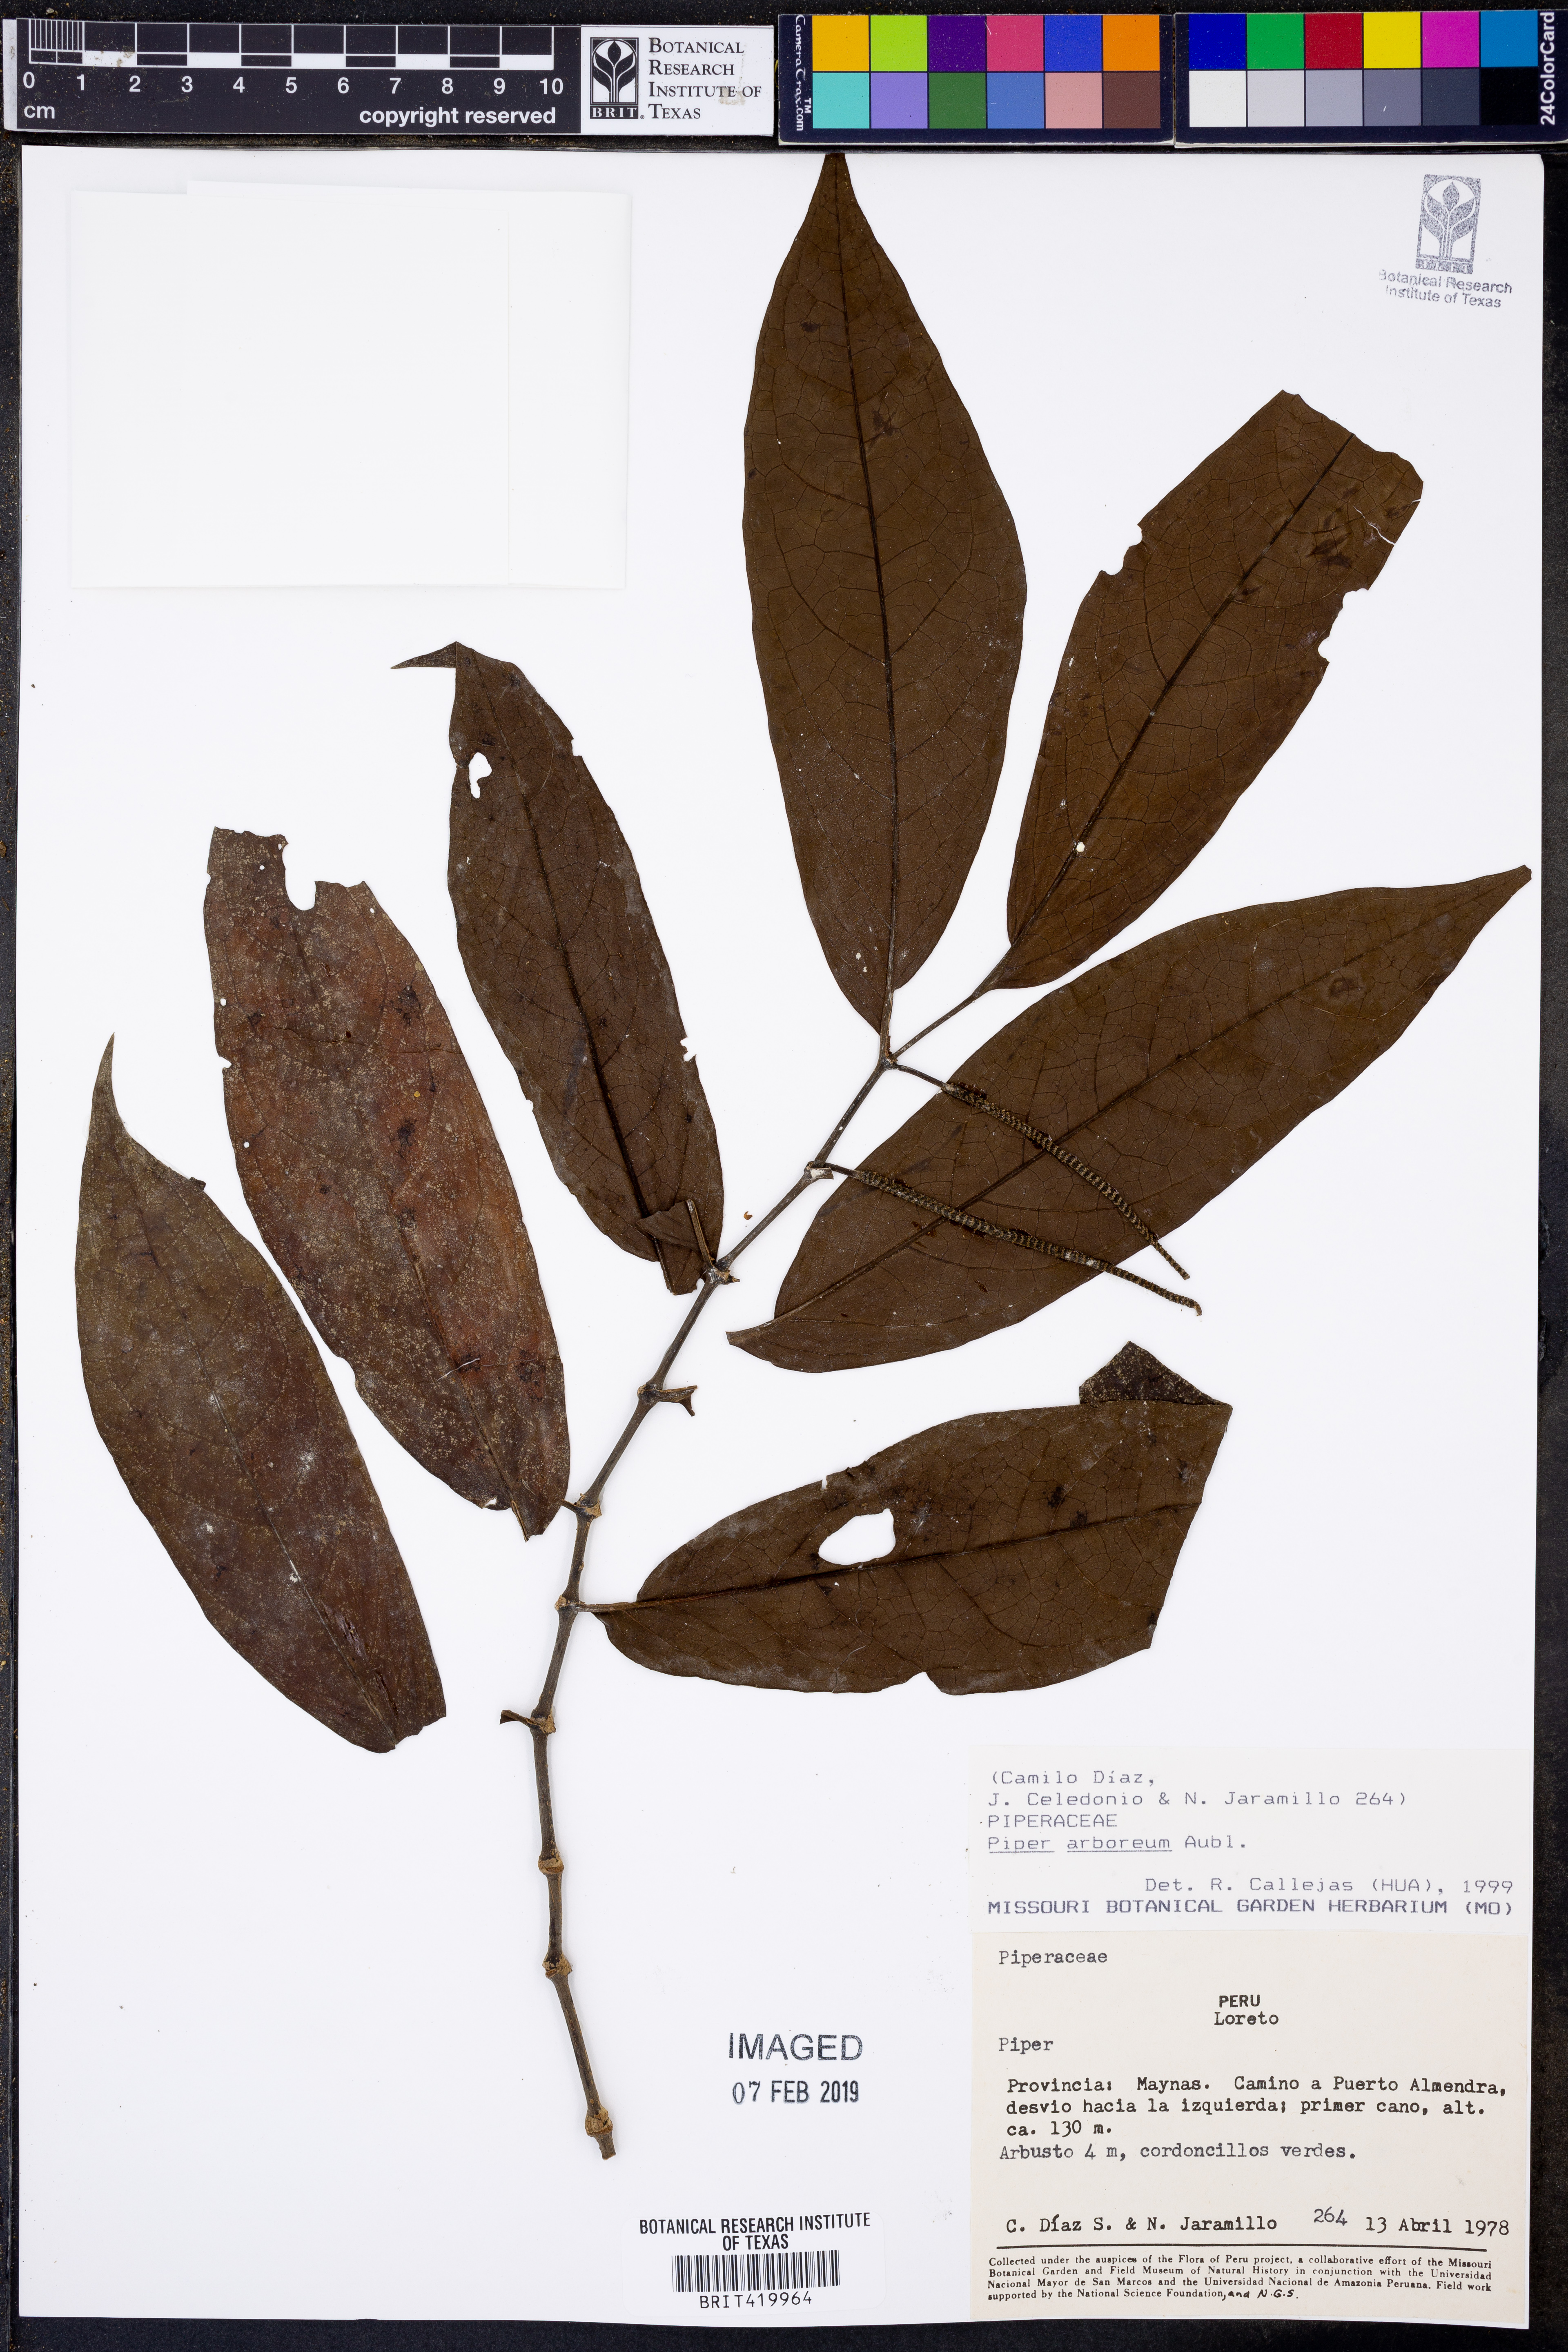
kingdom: Plantae
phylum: Tracheophyta
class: Magnoliopsida
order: Piperales
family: Piperaceae
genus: Piper
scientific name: Piper arboreum
